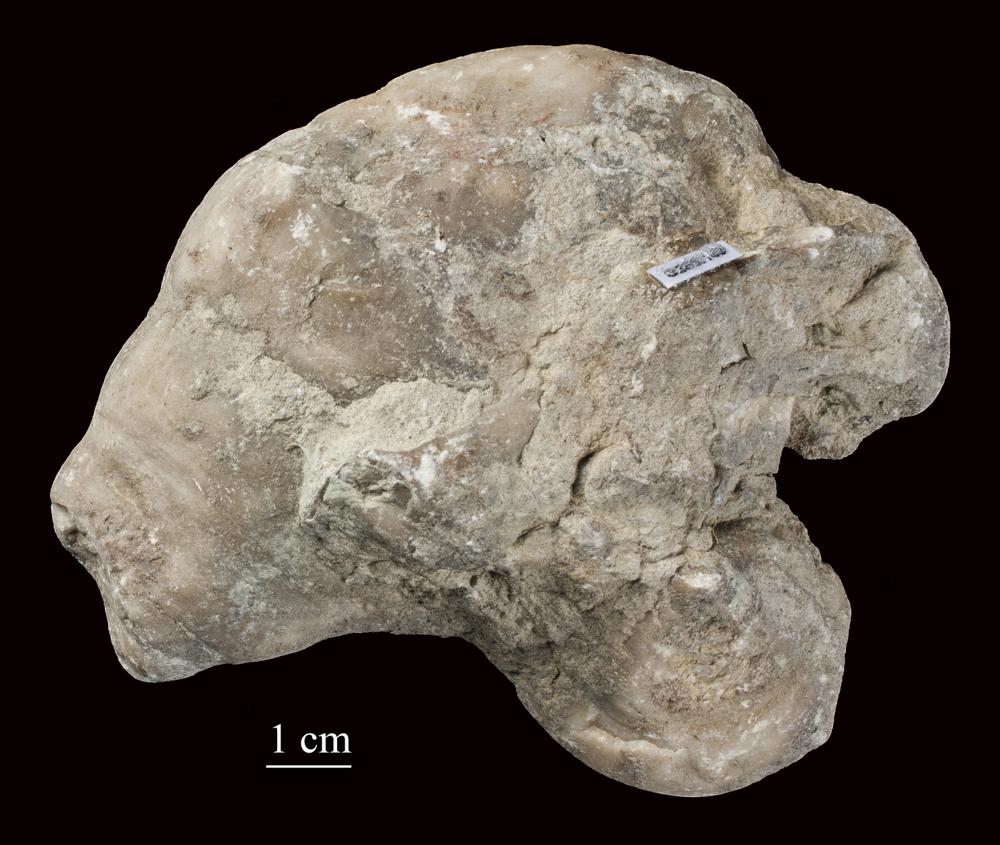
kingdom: Animalia
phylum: Mollusca
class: Gastropoda
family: Acteonellidae
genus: Actaeonella
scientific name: Actaeonella
